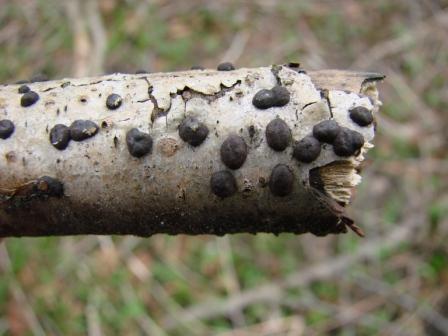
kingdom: Fungi
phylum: Ascomycota
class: Sordariomycetes
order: Xylariales
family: Hypoxylaceae
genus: Hypoxylon
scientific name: Hypoxylon fuscum
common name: kegleformet kulbær
